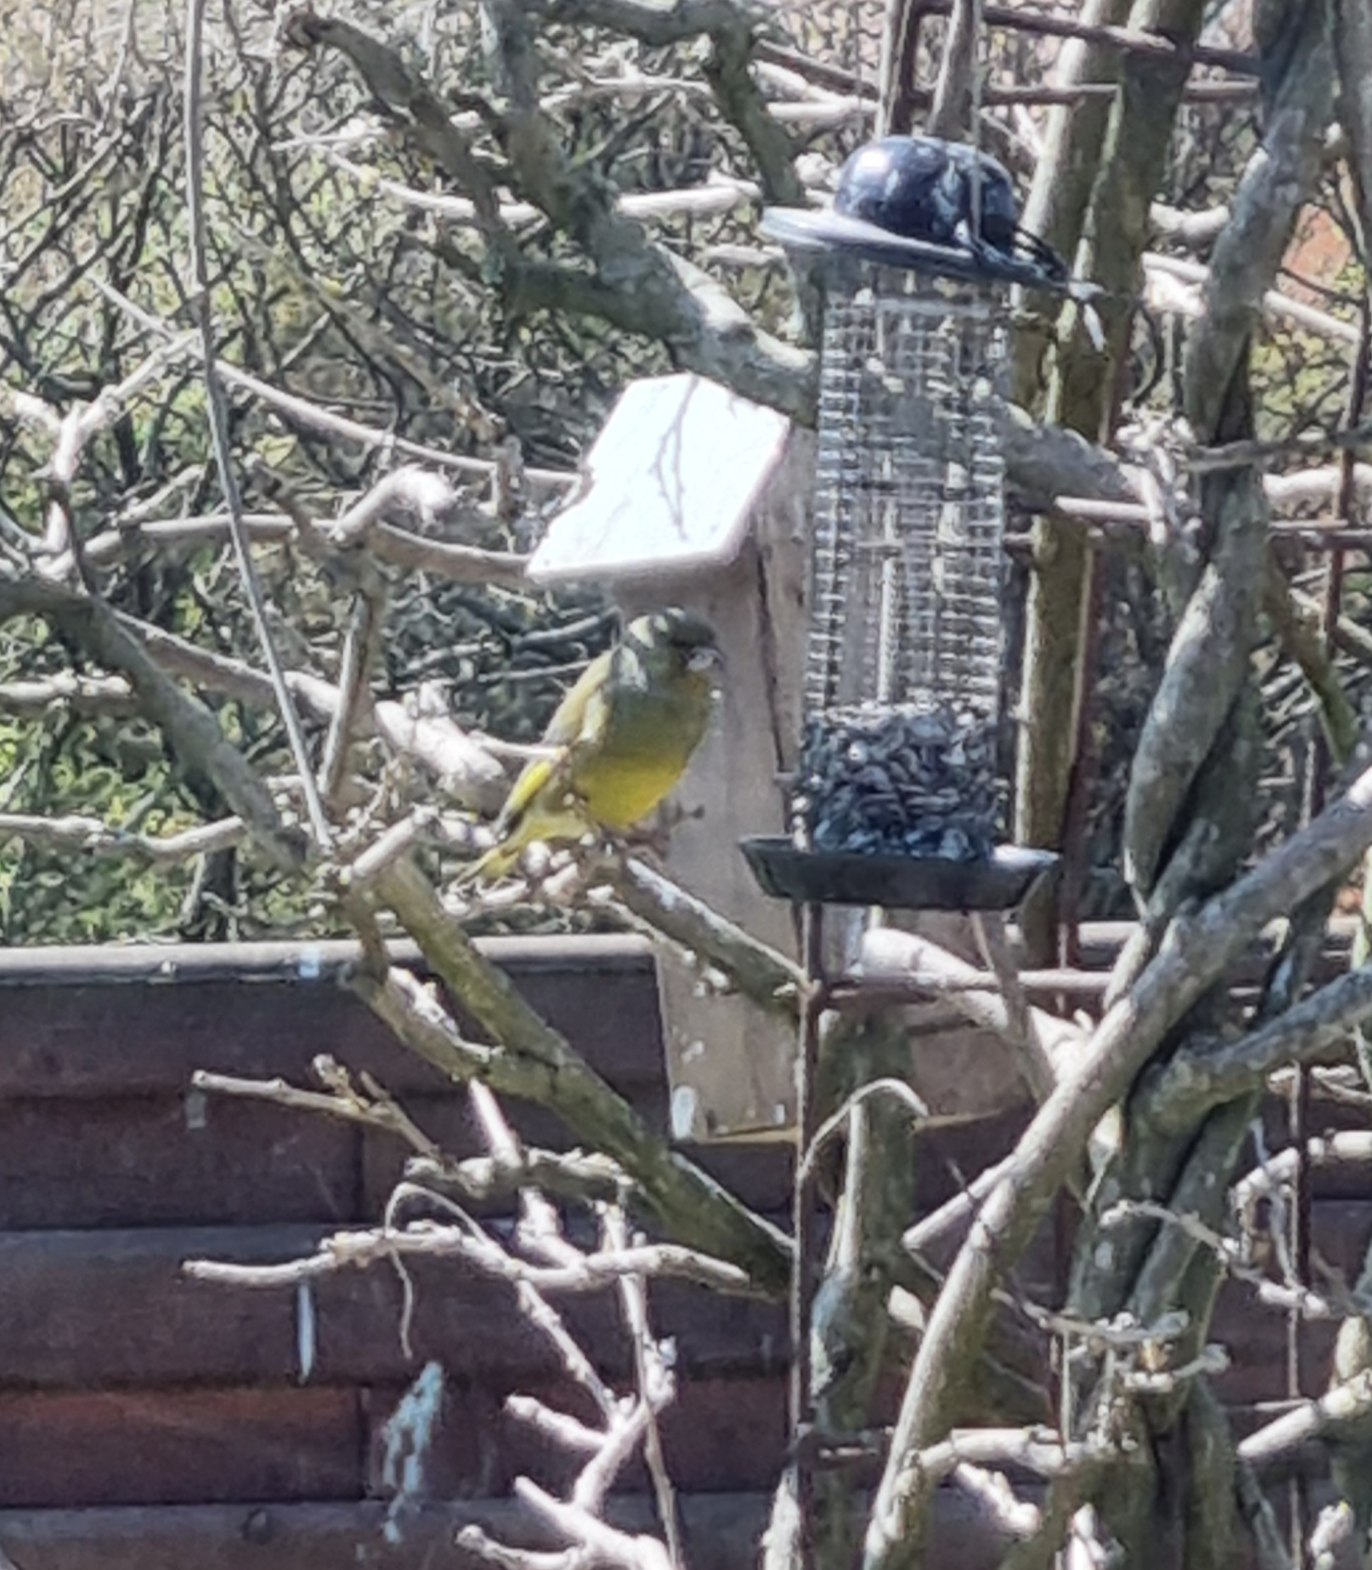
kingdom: Plantae
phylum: Tracheophyta
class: Liliopsida
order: Poales
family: Poaceae
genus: Chloris
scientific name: Chloris chloris
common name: Grønirisk
